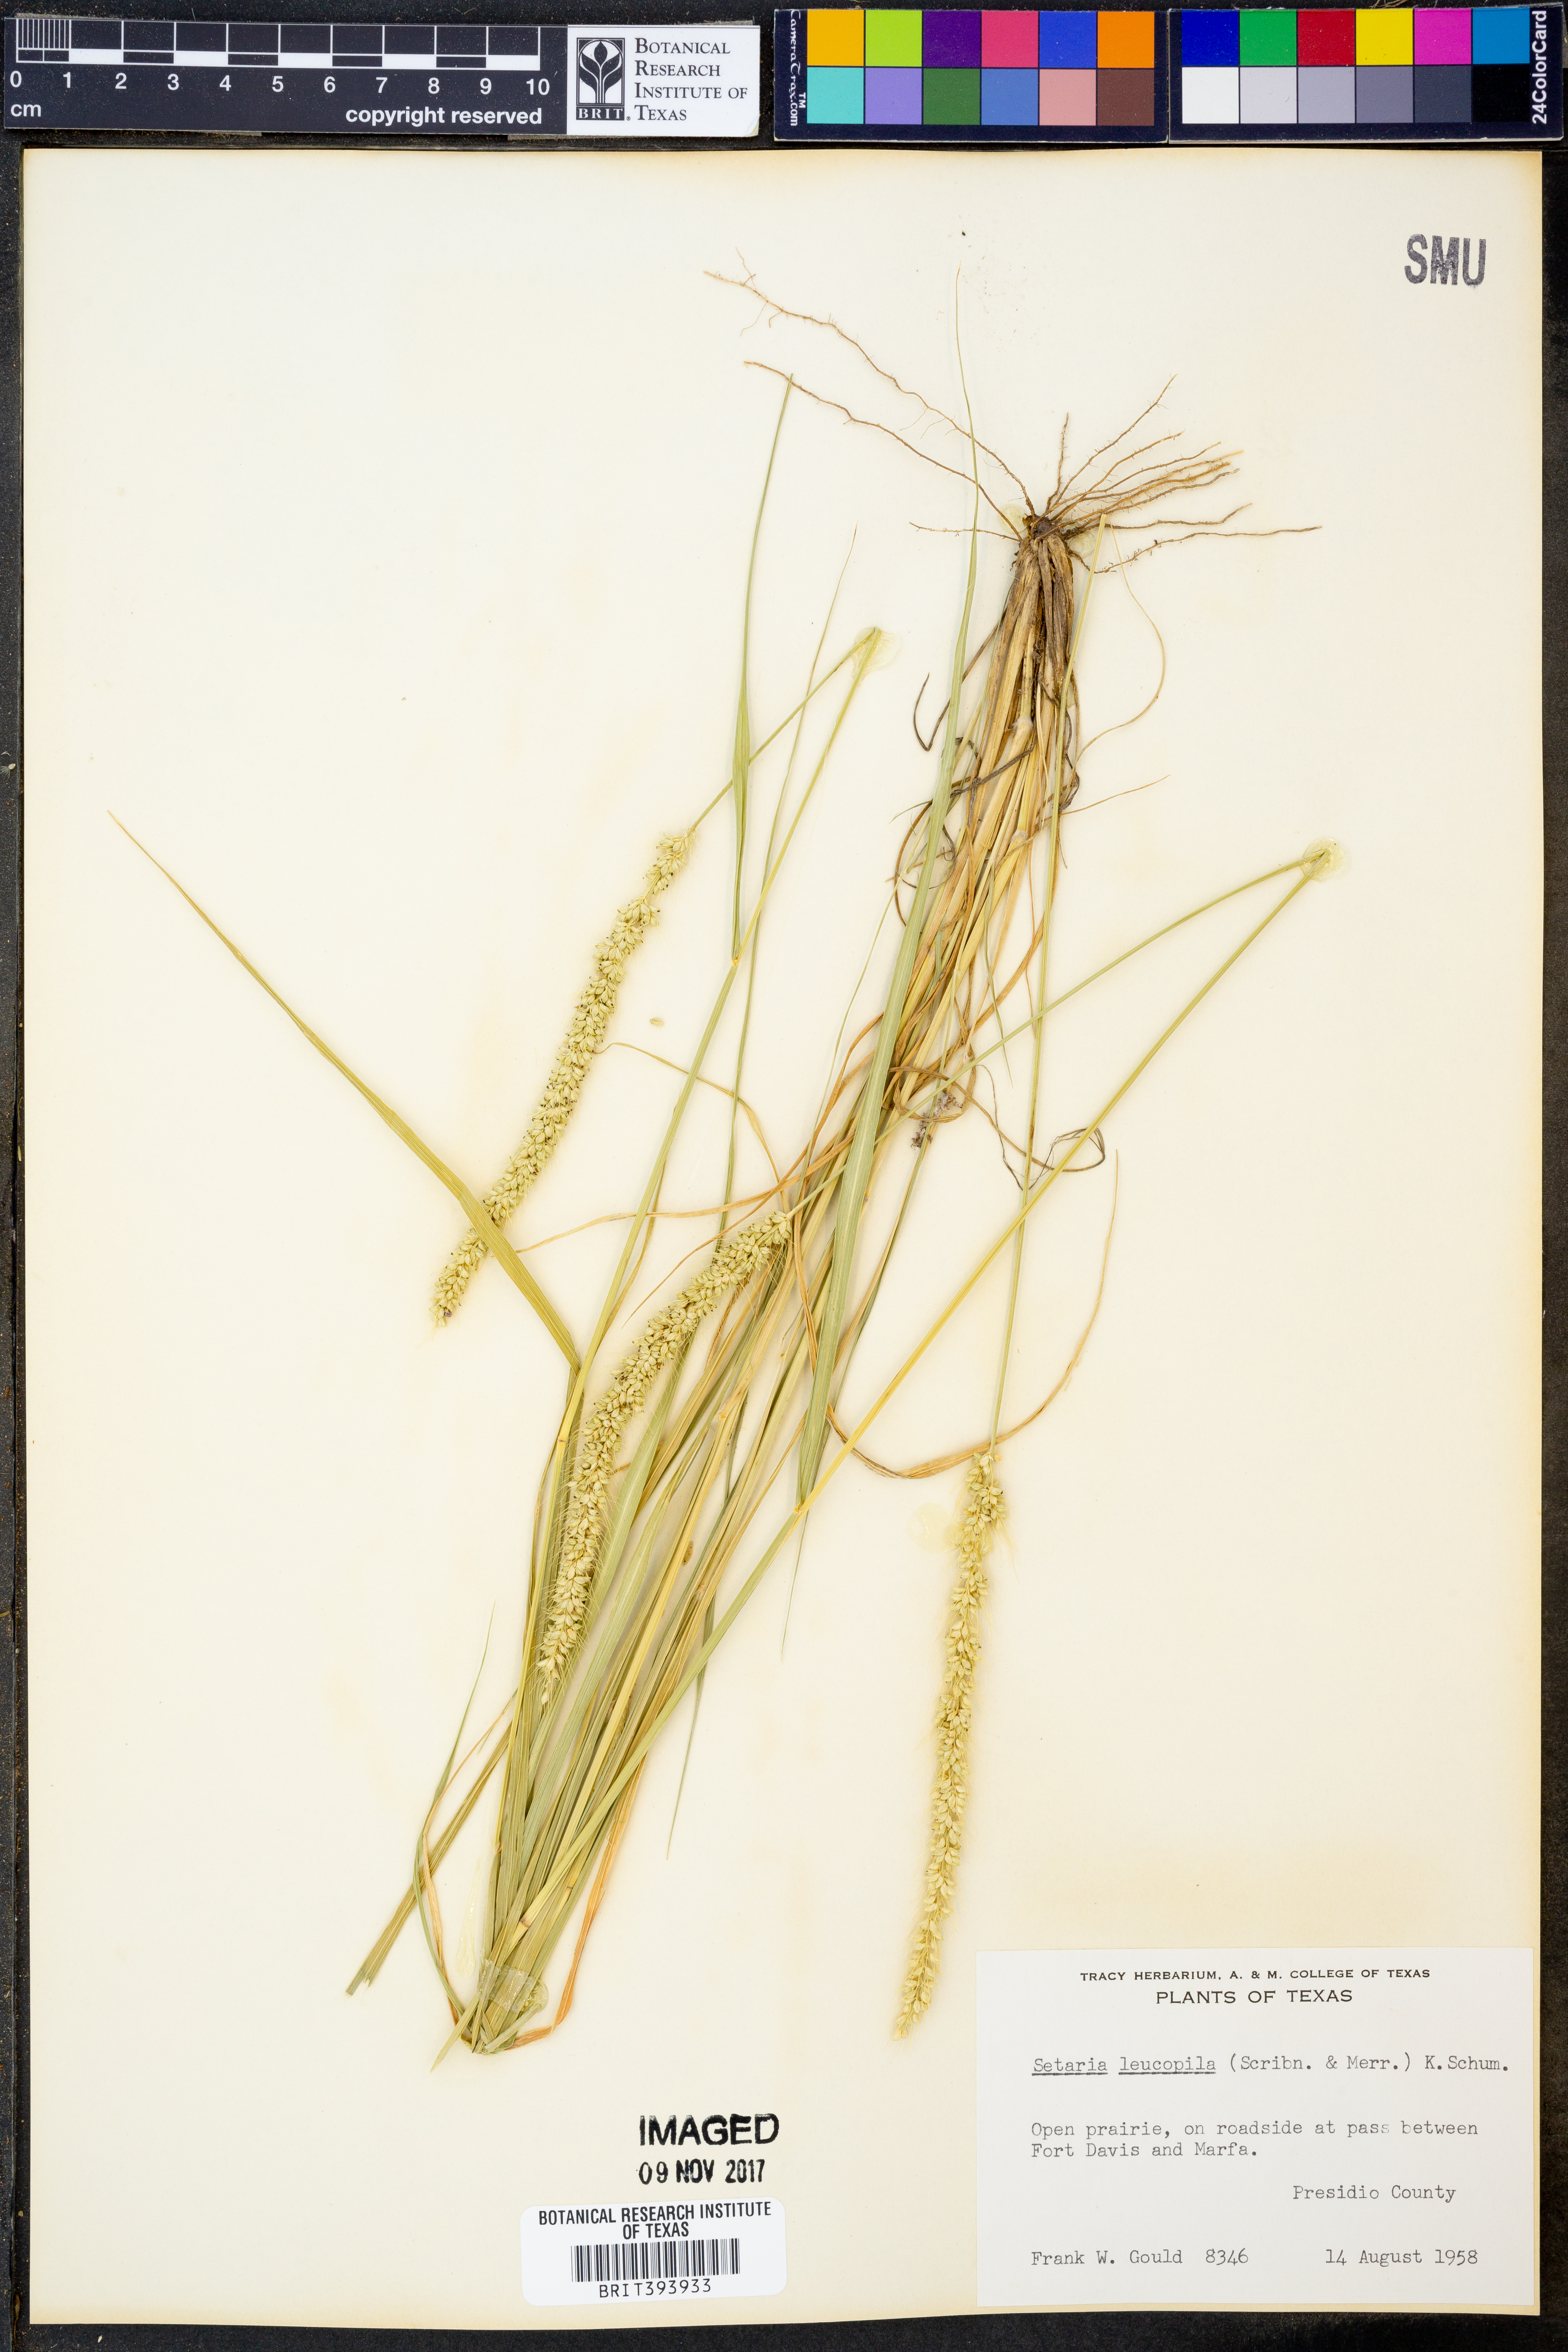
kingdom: Plantae
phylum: Tracheophyta
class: Liliopsida
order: Poales
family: Poaceae
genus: Setaria
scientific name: Setaria leucopila
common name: Plains bristle grass
